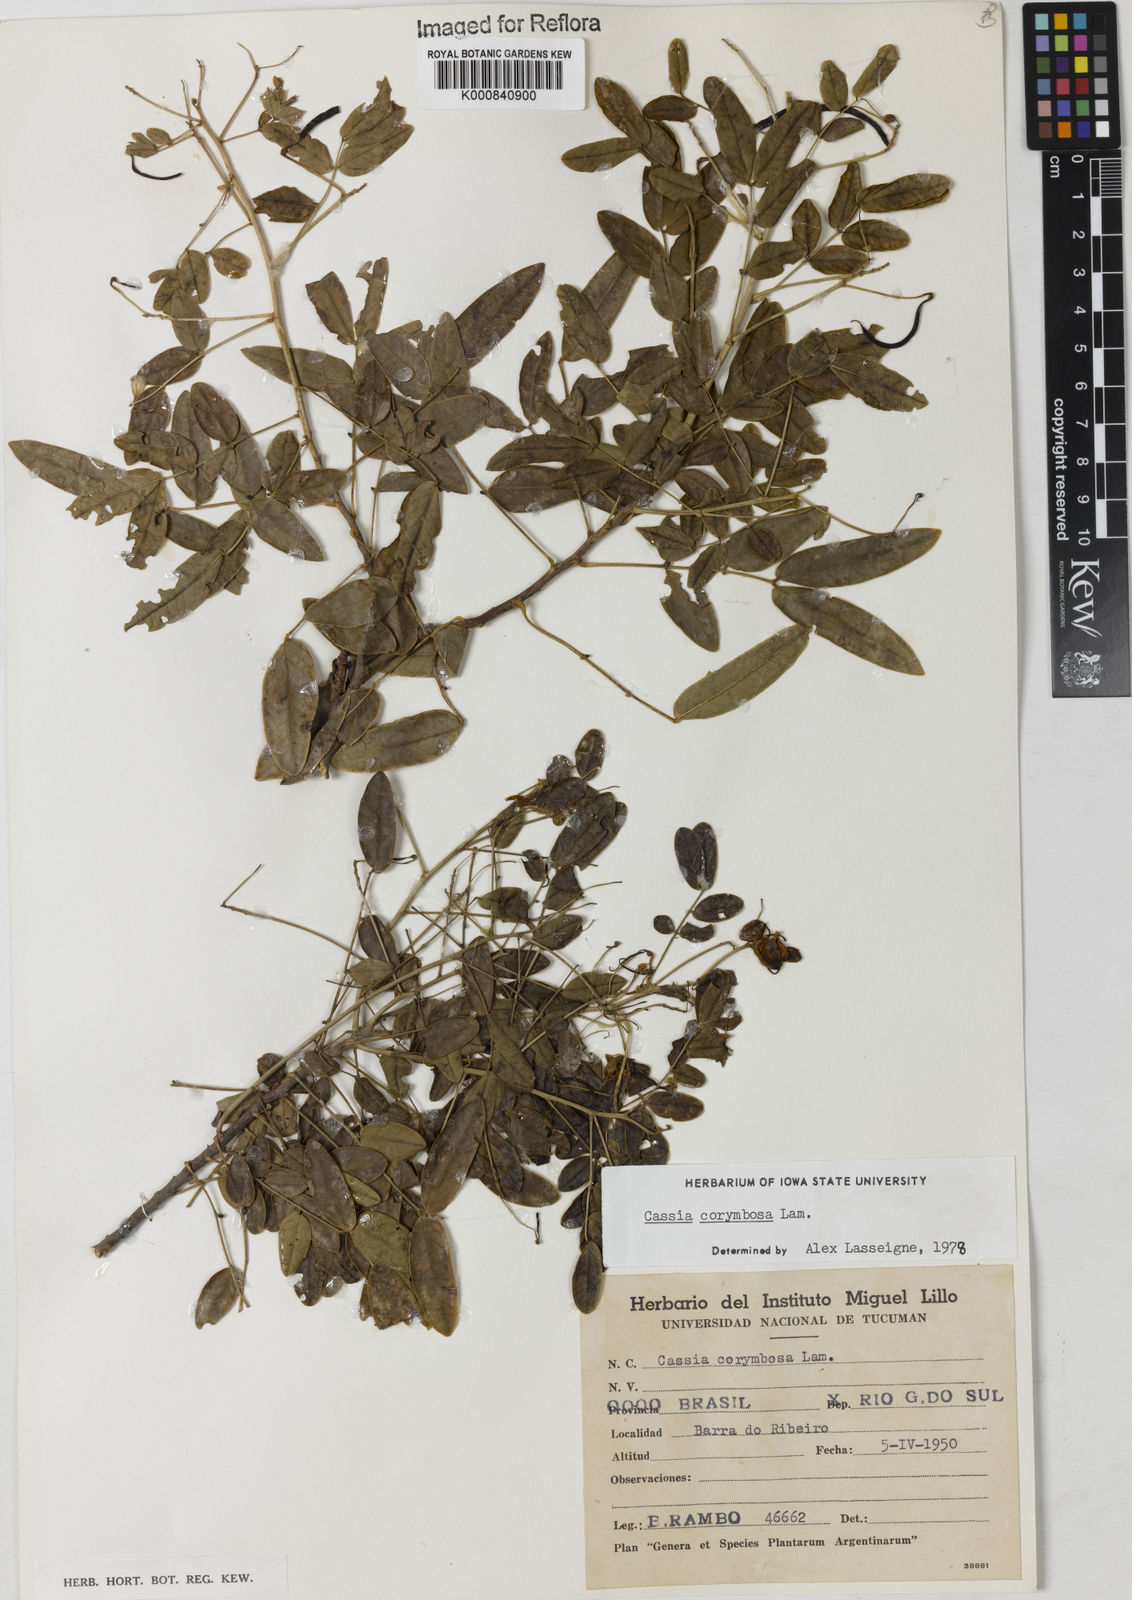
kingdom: Plantae
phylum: Tracheophyta
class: Magnoliopsida
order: Fabales
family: Fabaceae
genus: Senna
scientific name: Senna corymbosa
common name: Argentine senna
